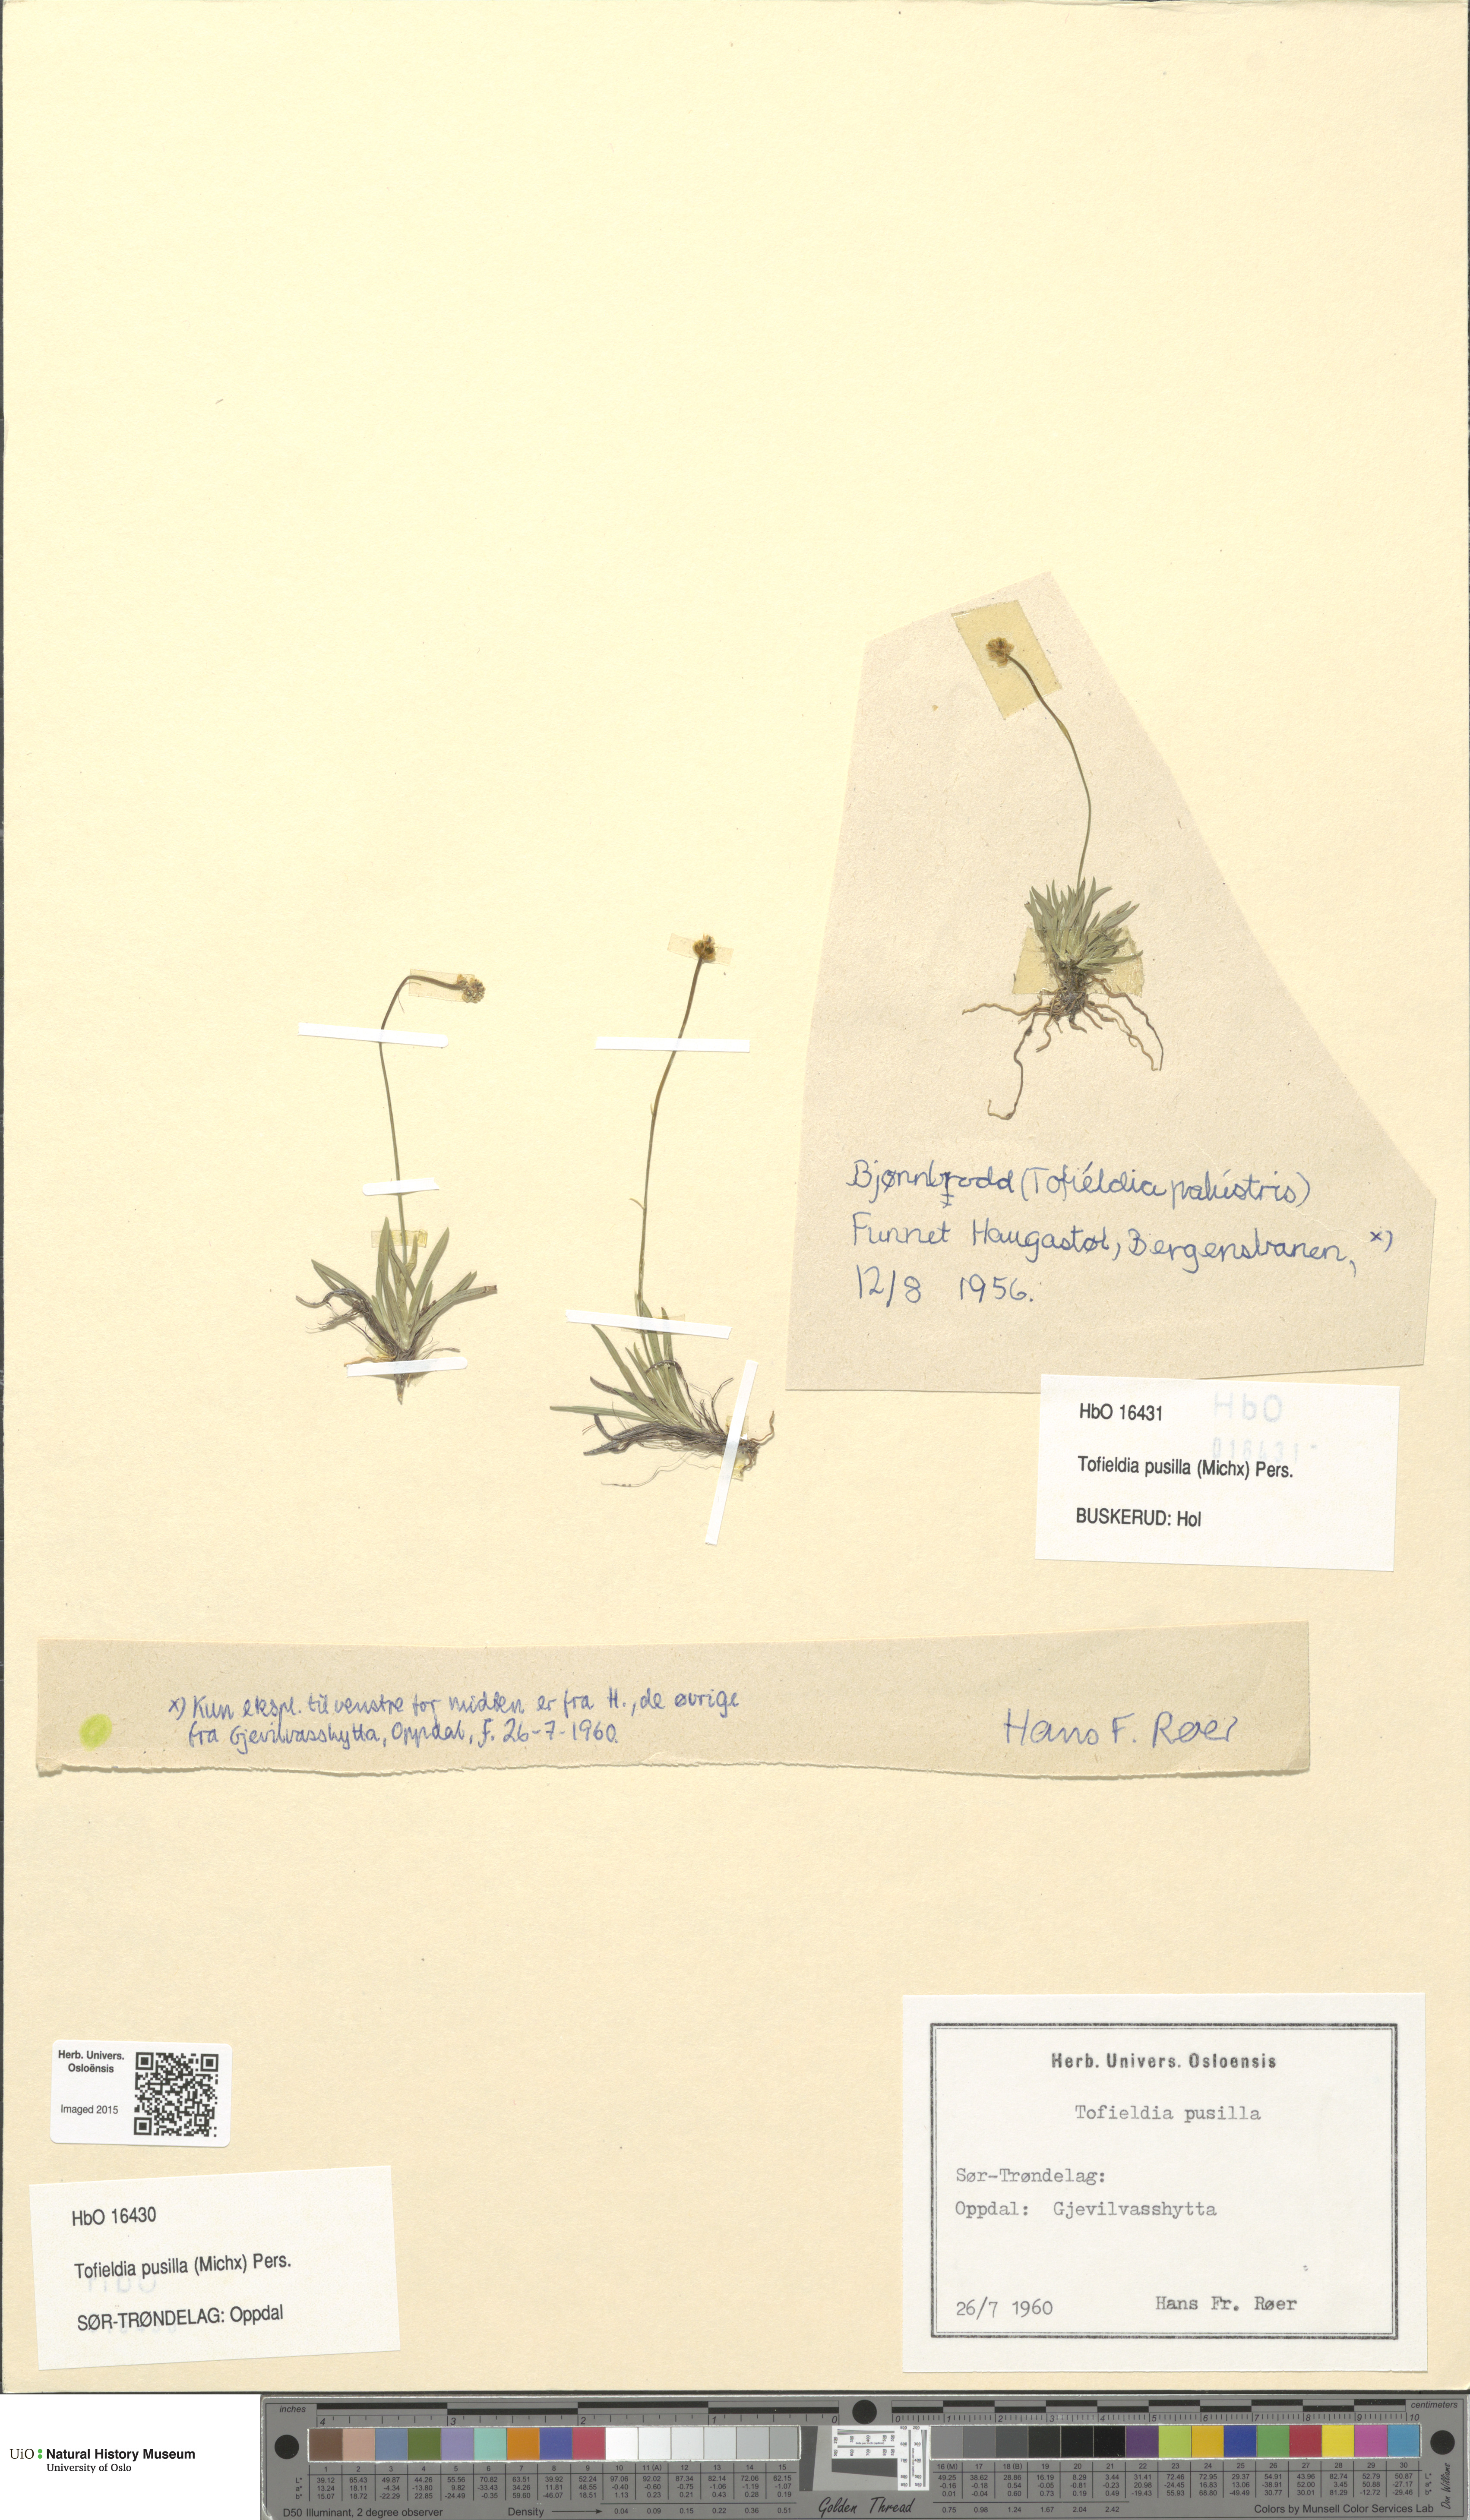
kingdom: Plantae
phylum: Tracheophyta
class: Liliopsida
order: Alismatales
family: Tofieldiaceae
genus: Tofieldia
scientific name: Tofieldia pusilla
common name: Scottish false asphodel
